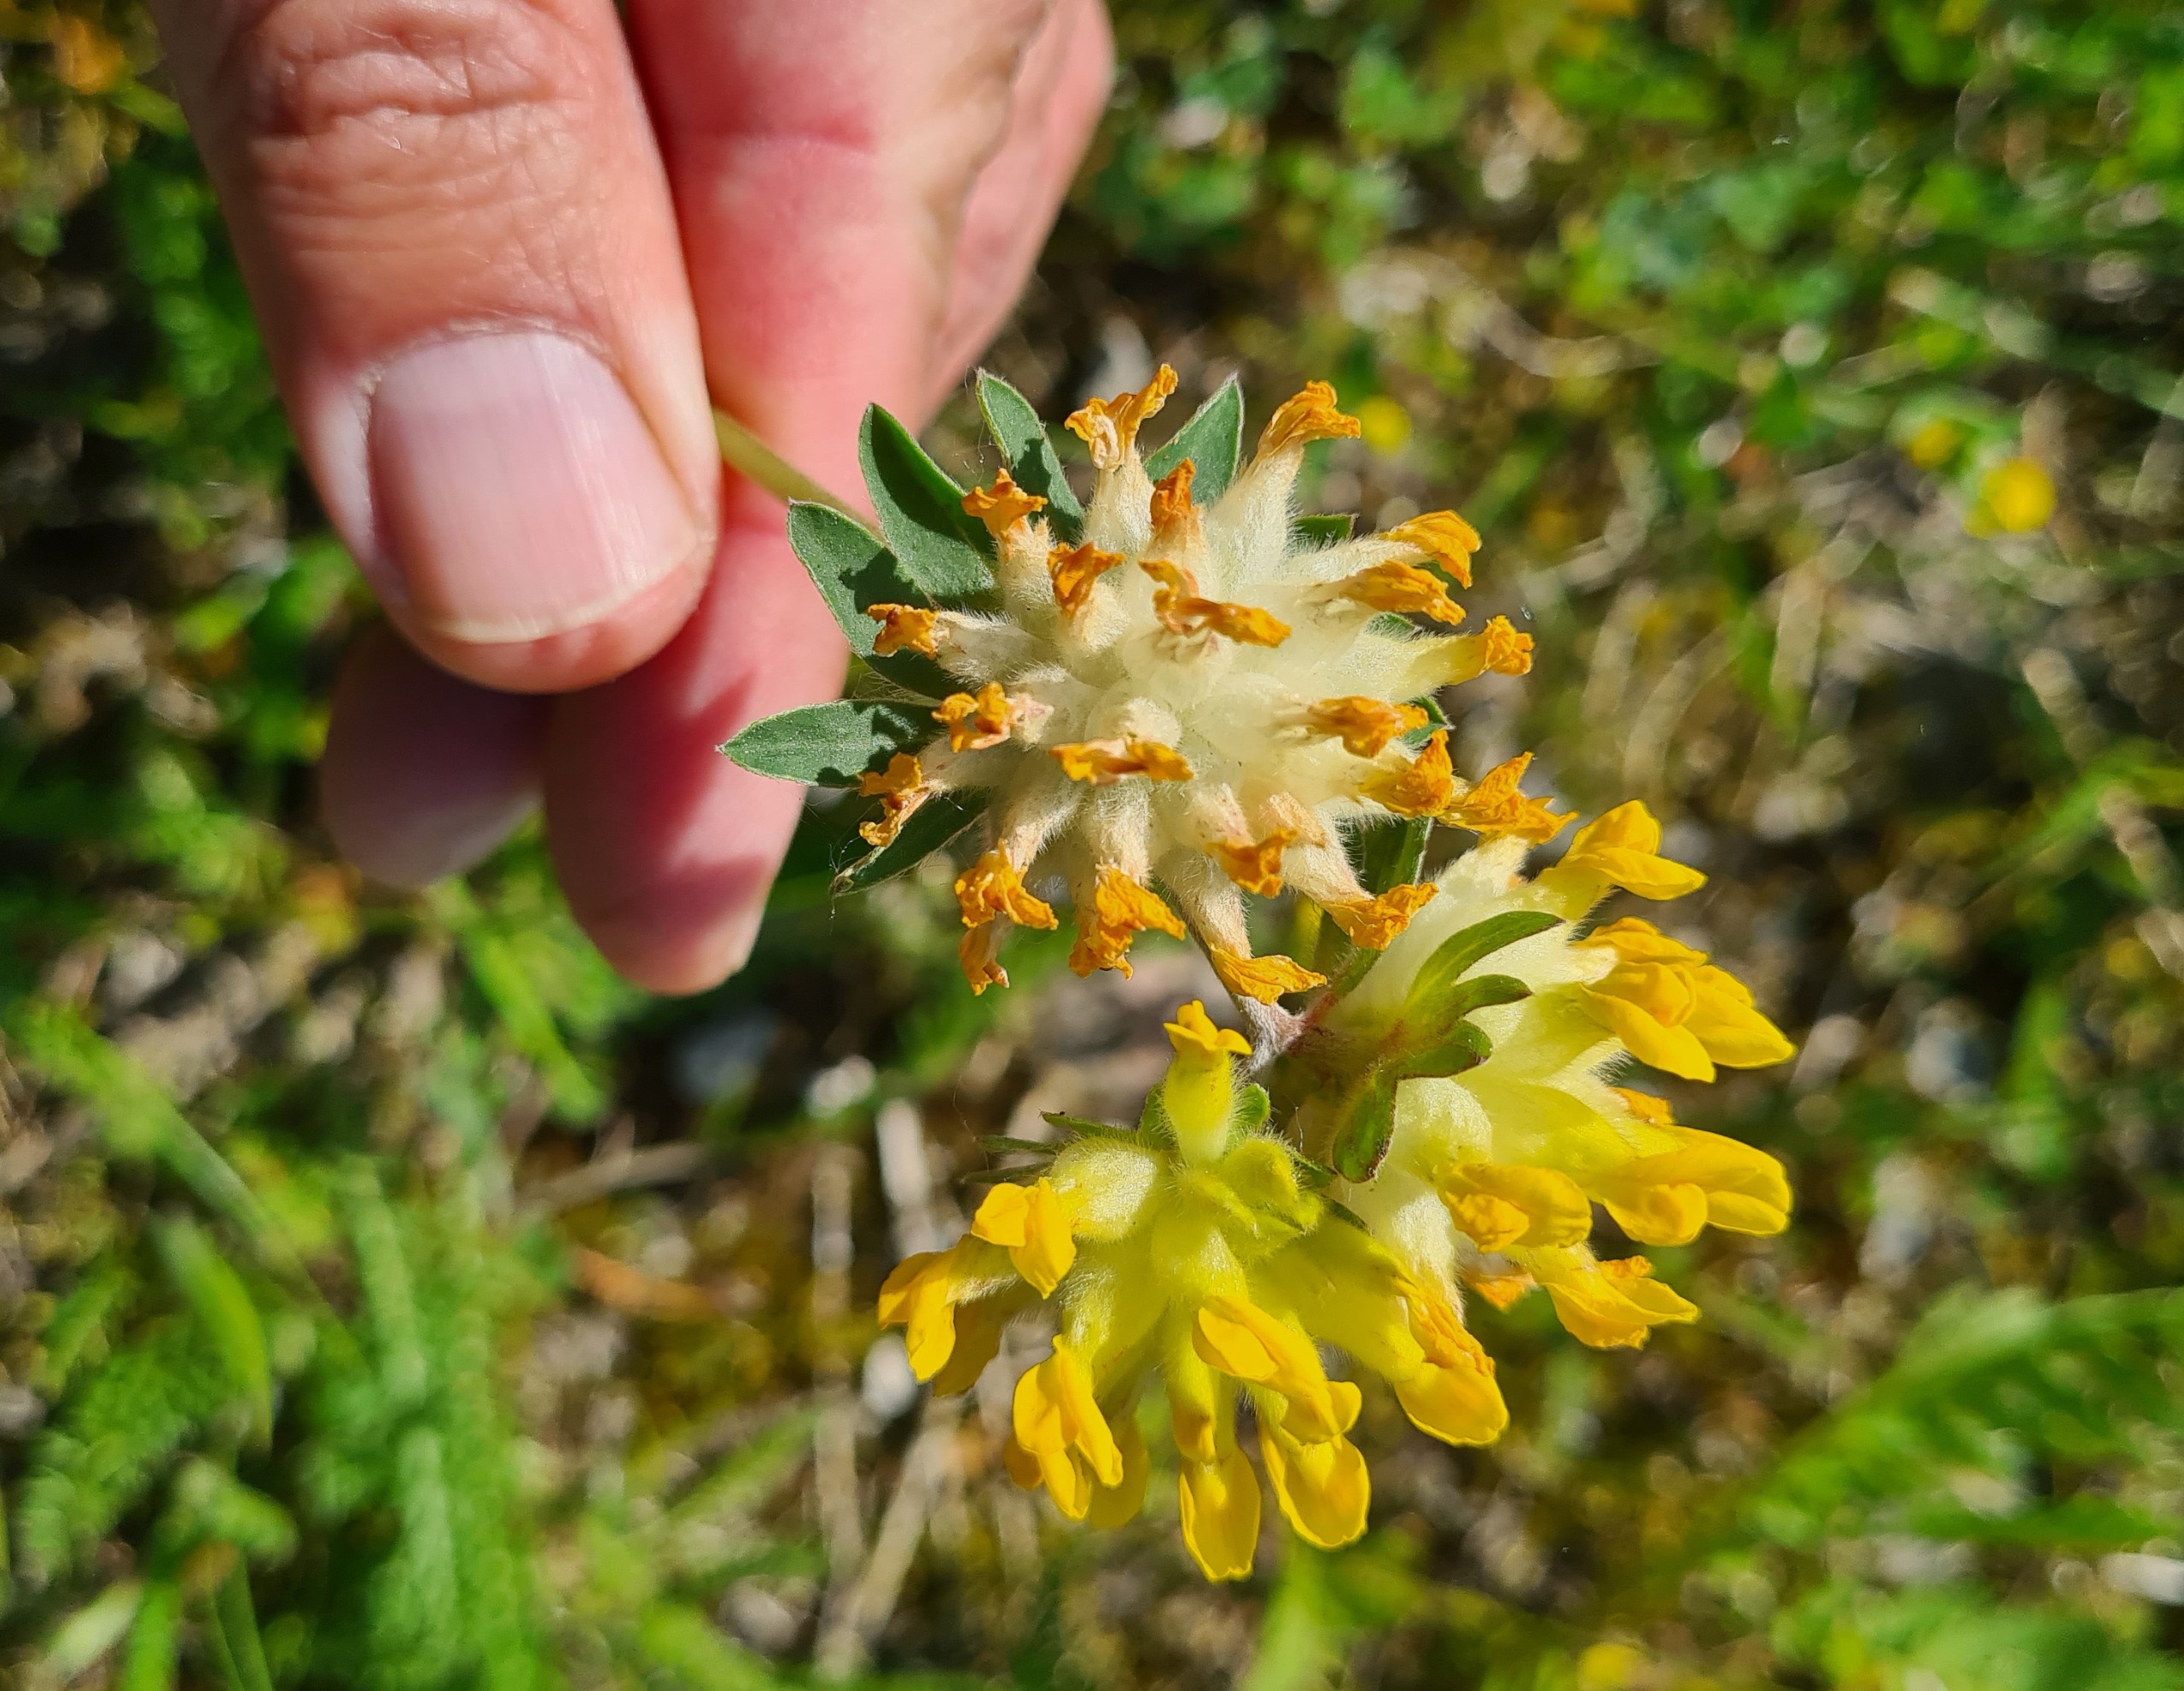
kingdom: Plantae
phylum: Tracheophyta
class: Magnoliopsida
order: Fabales
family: Fabaceae
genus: Anthyllis
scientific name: Anthyllis vulneraria
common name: Rundbælg
